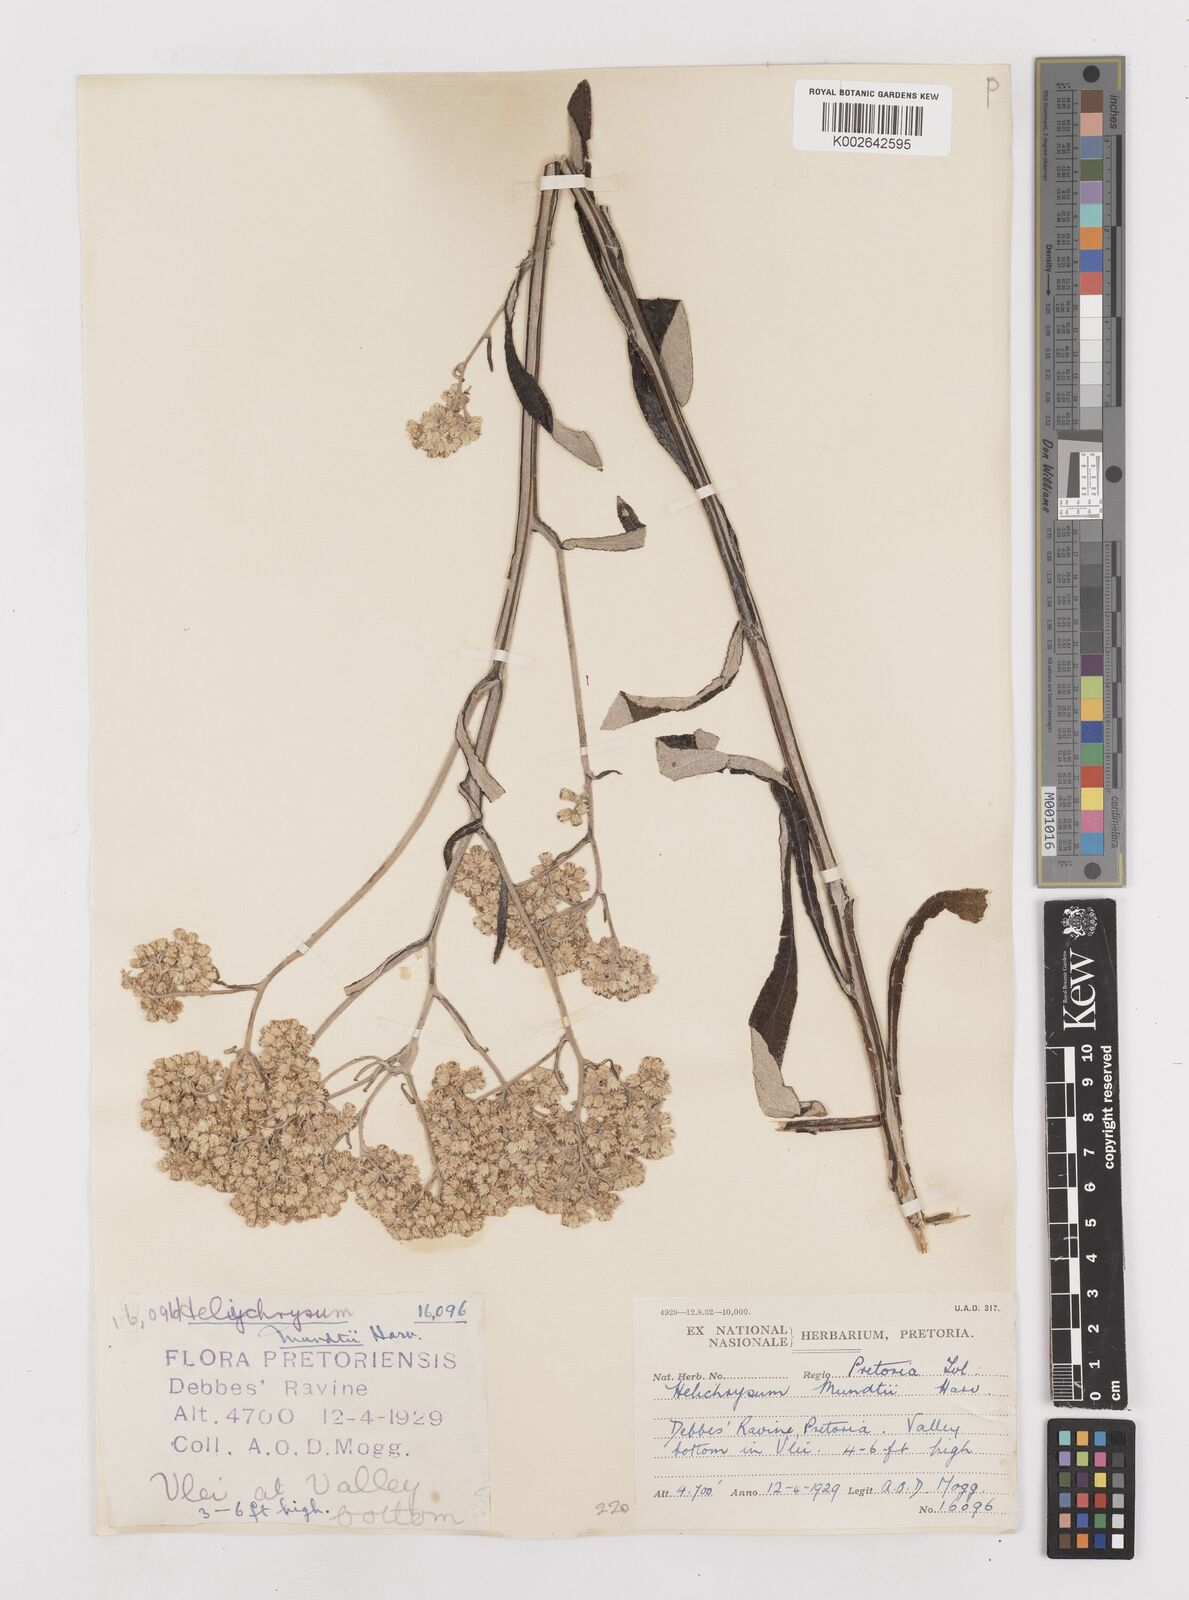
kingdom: Plantae
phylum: Tracheophyta
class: Magnoliopsida
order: Asterales
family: Asteraceae
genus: Helichrysum
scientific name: Helichrysum mundii
